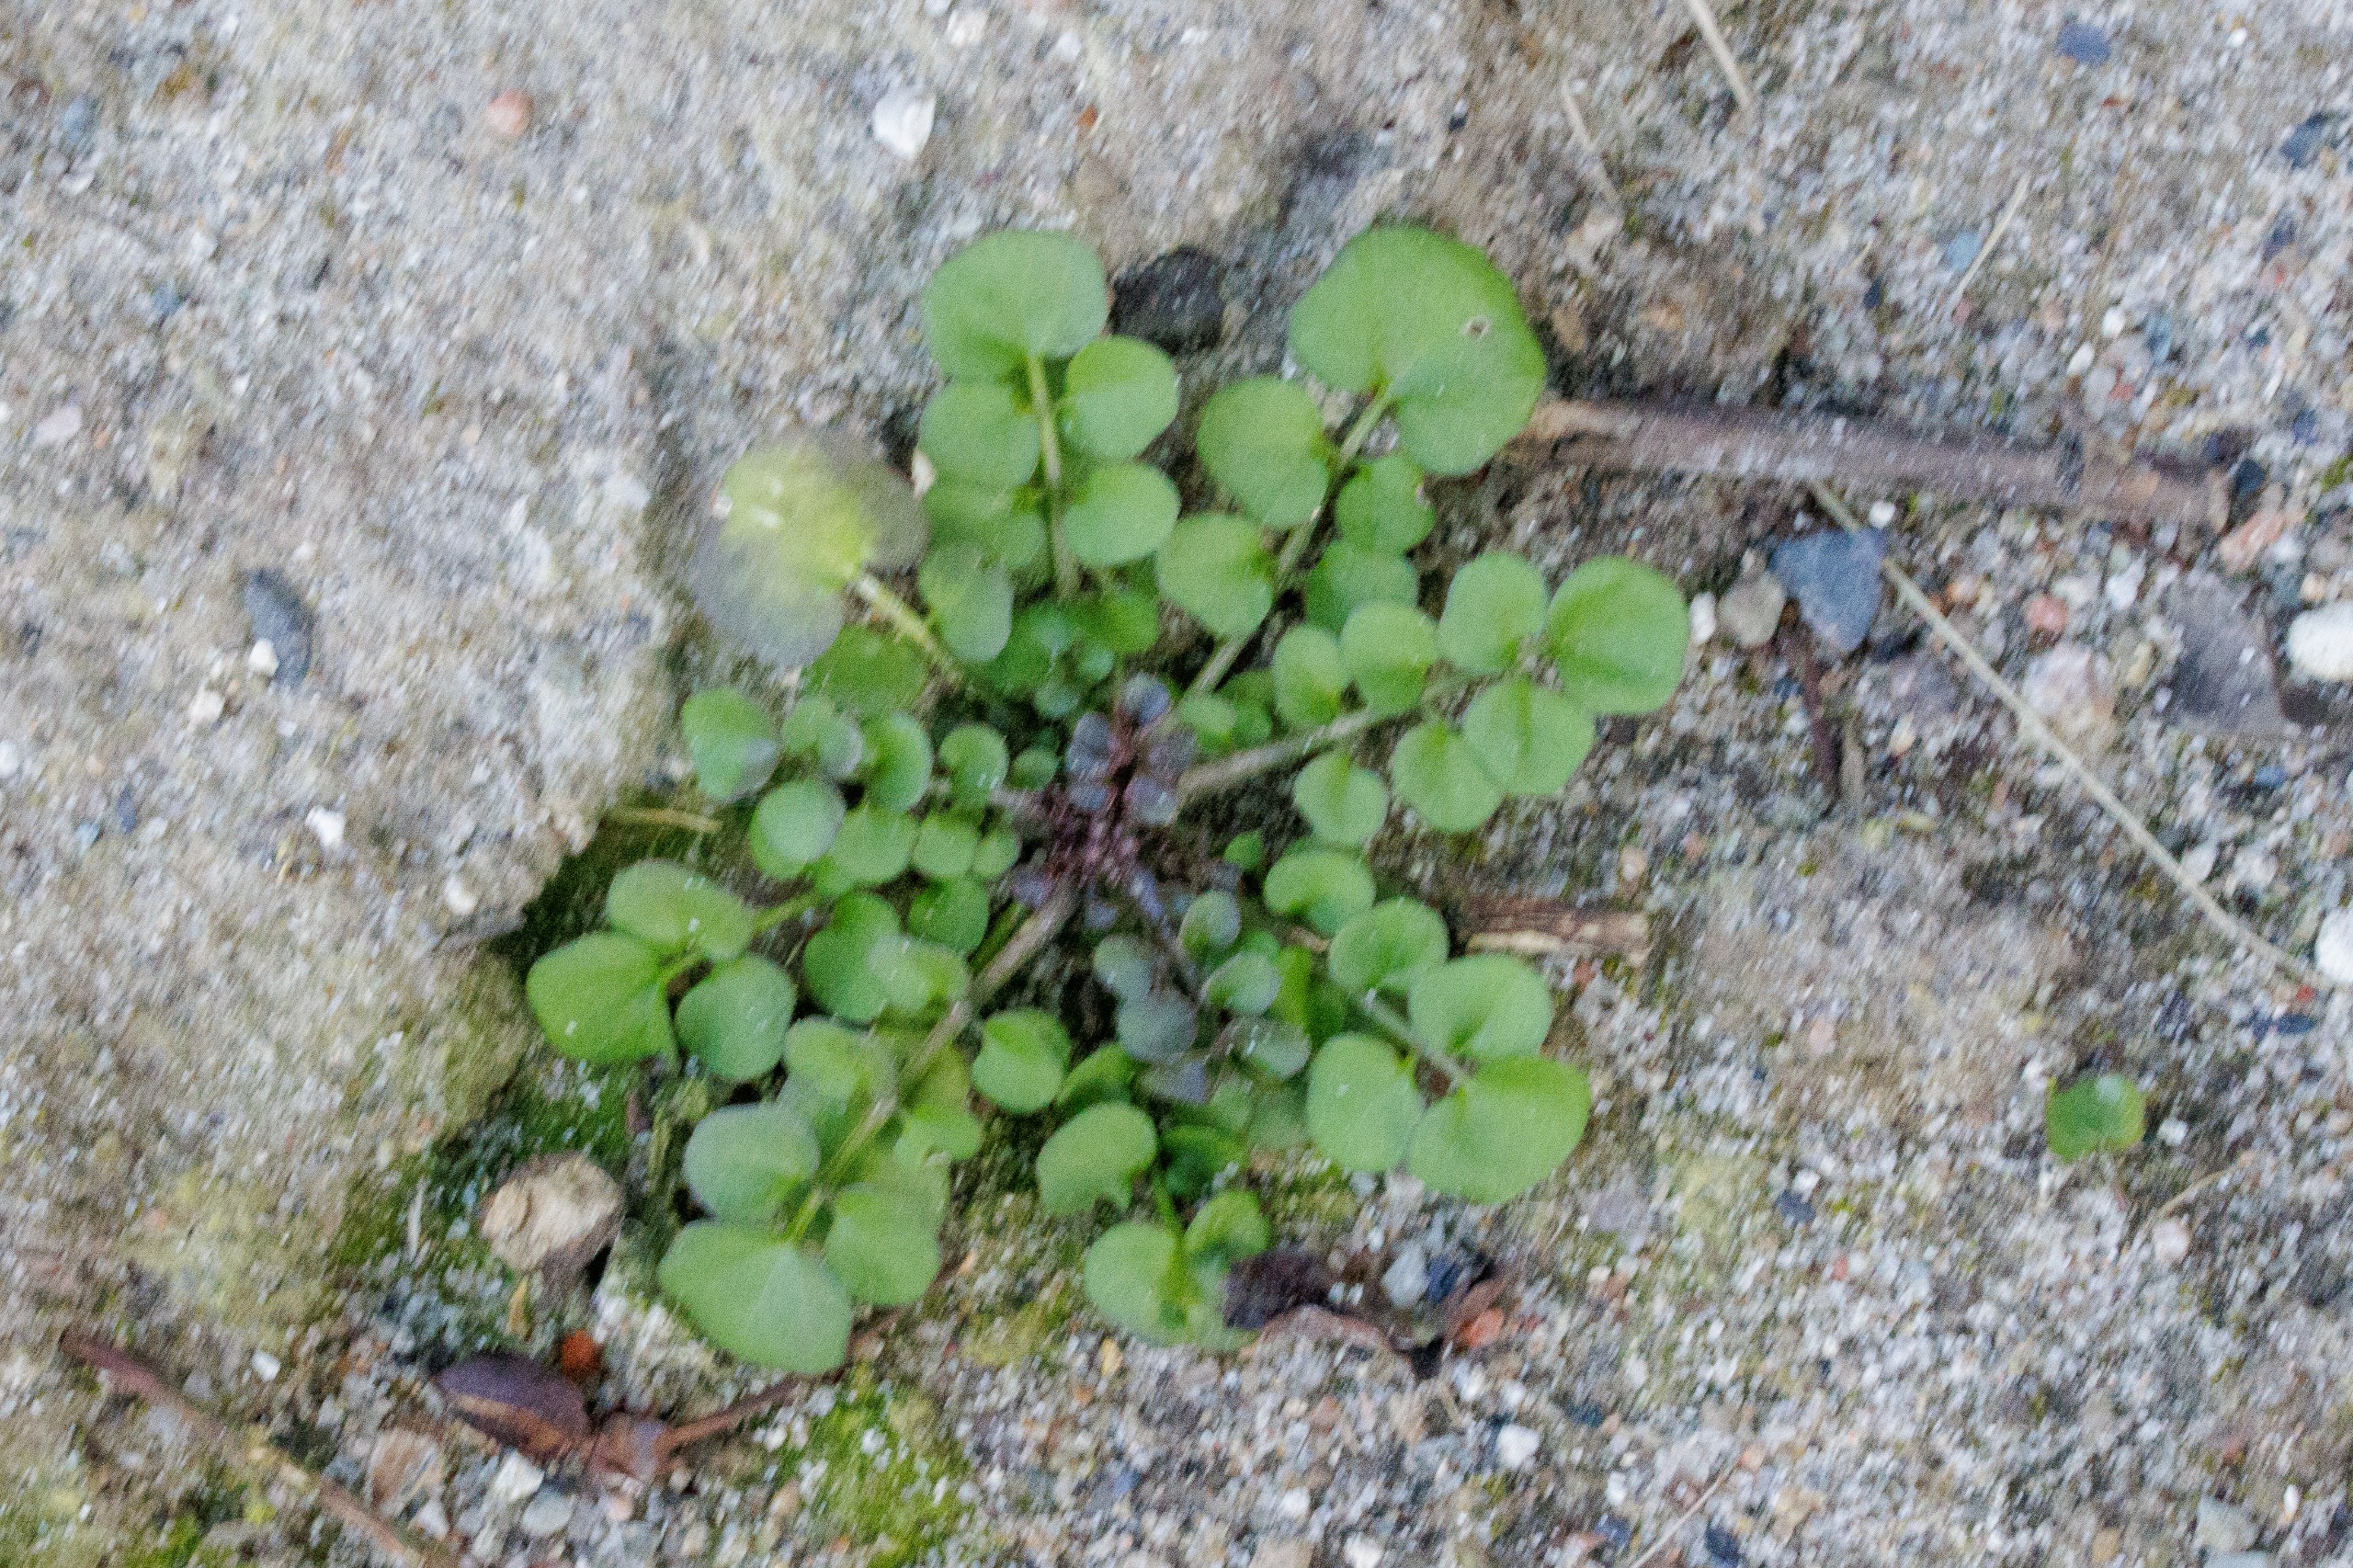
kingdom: Plantae
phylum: Tracheophyta
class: Magnoliopsida
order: Brassicales
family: Brassicaceae
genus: Cardamine
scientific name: Cardamine hirsuta
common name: Roset-springklap
